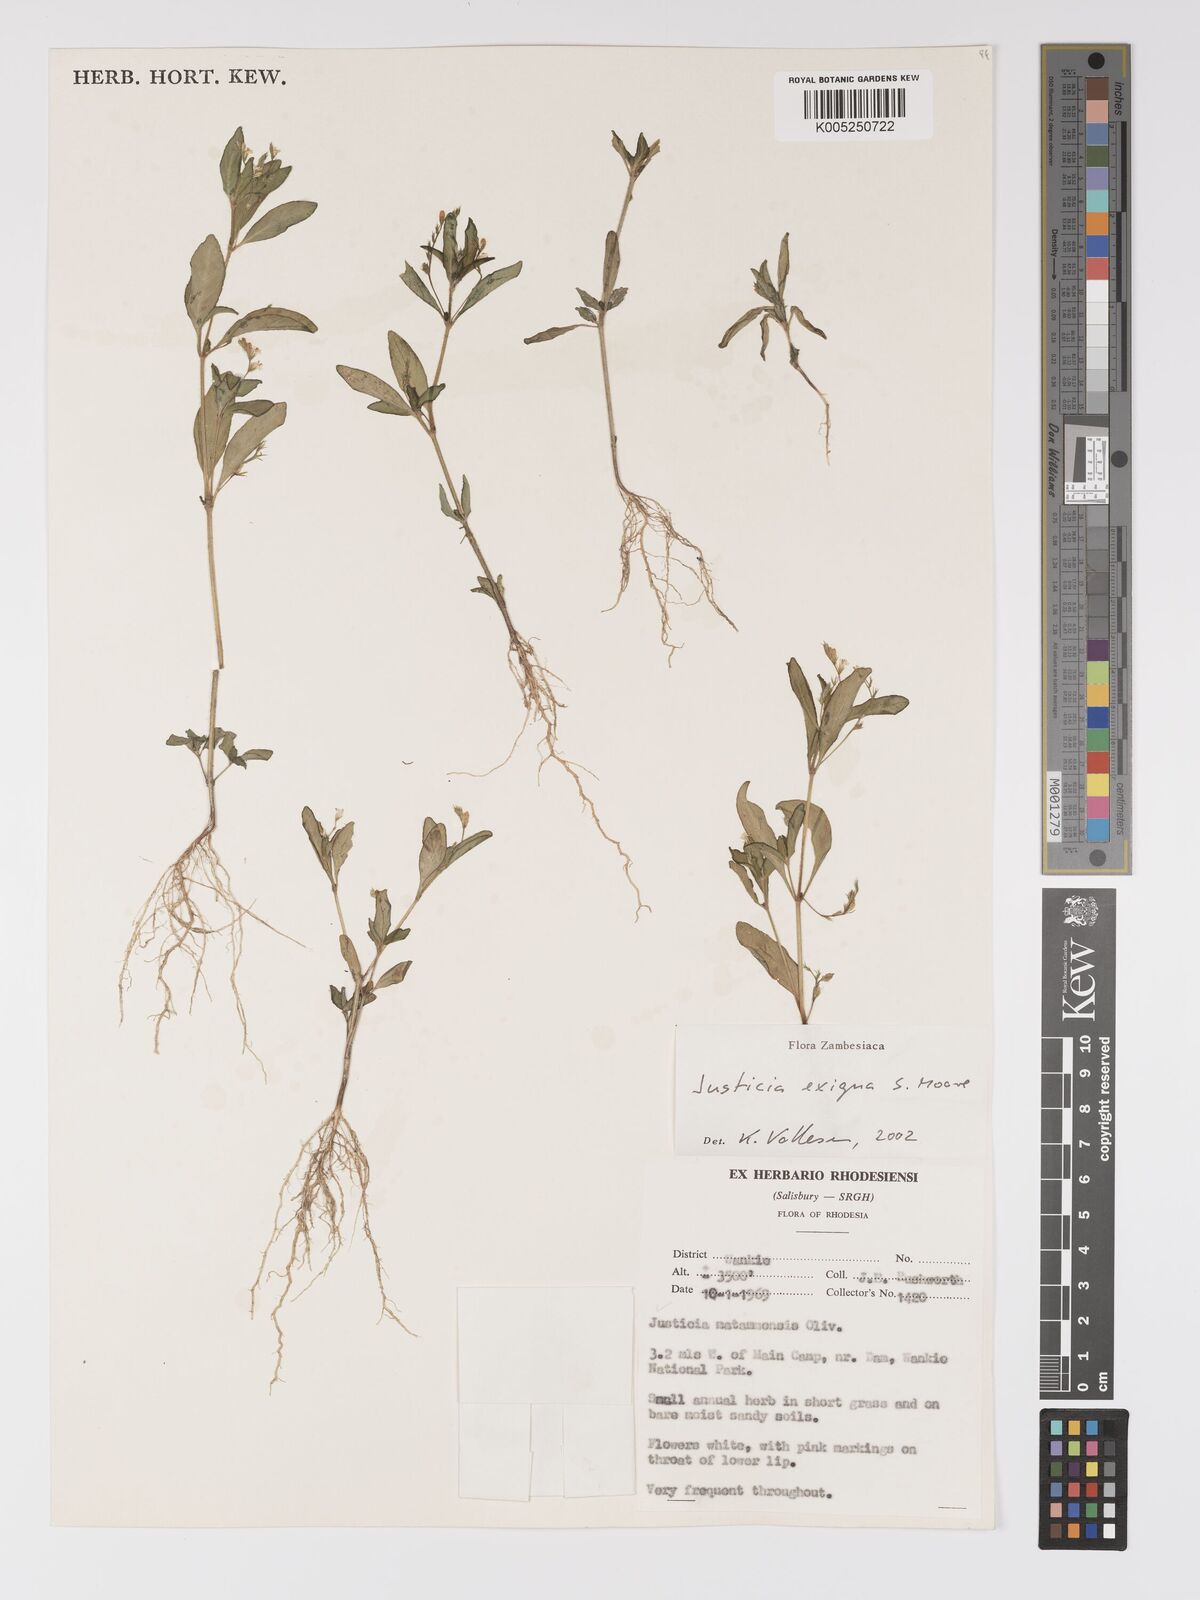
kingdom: Plantae
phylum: Tracheophyta
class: Magnoliopsida
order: Lamiales
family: Acanthaceae
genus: Justicia
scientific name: Justicia exigua
